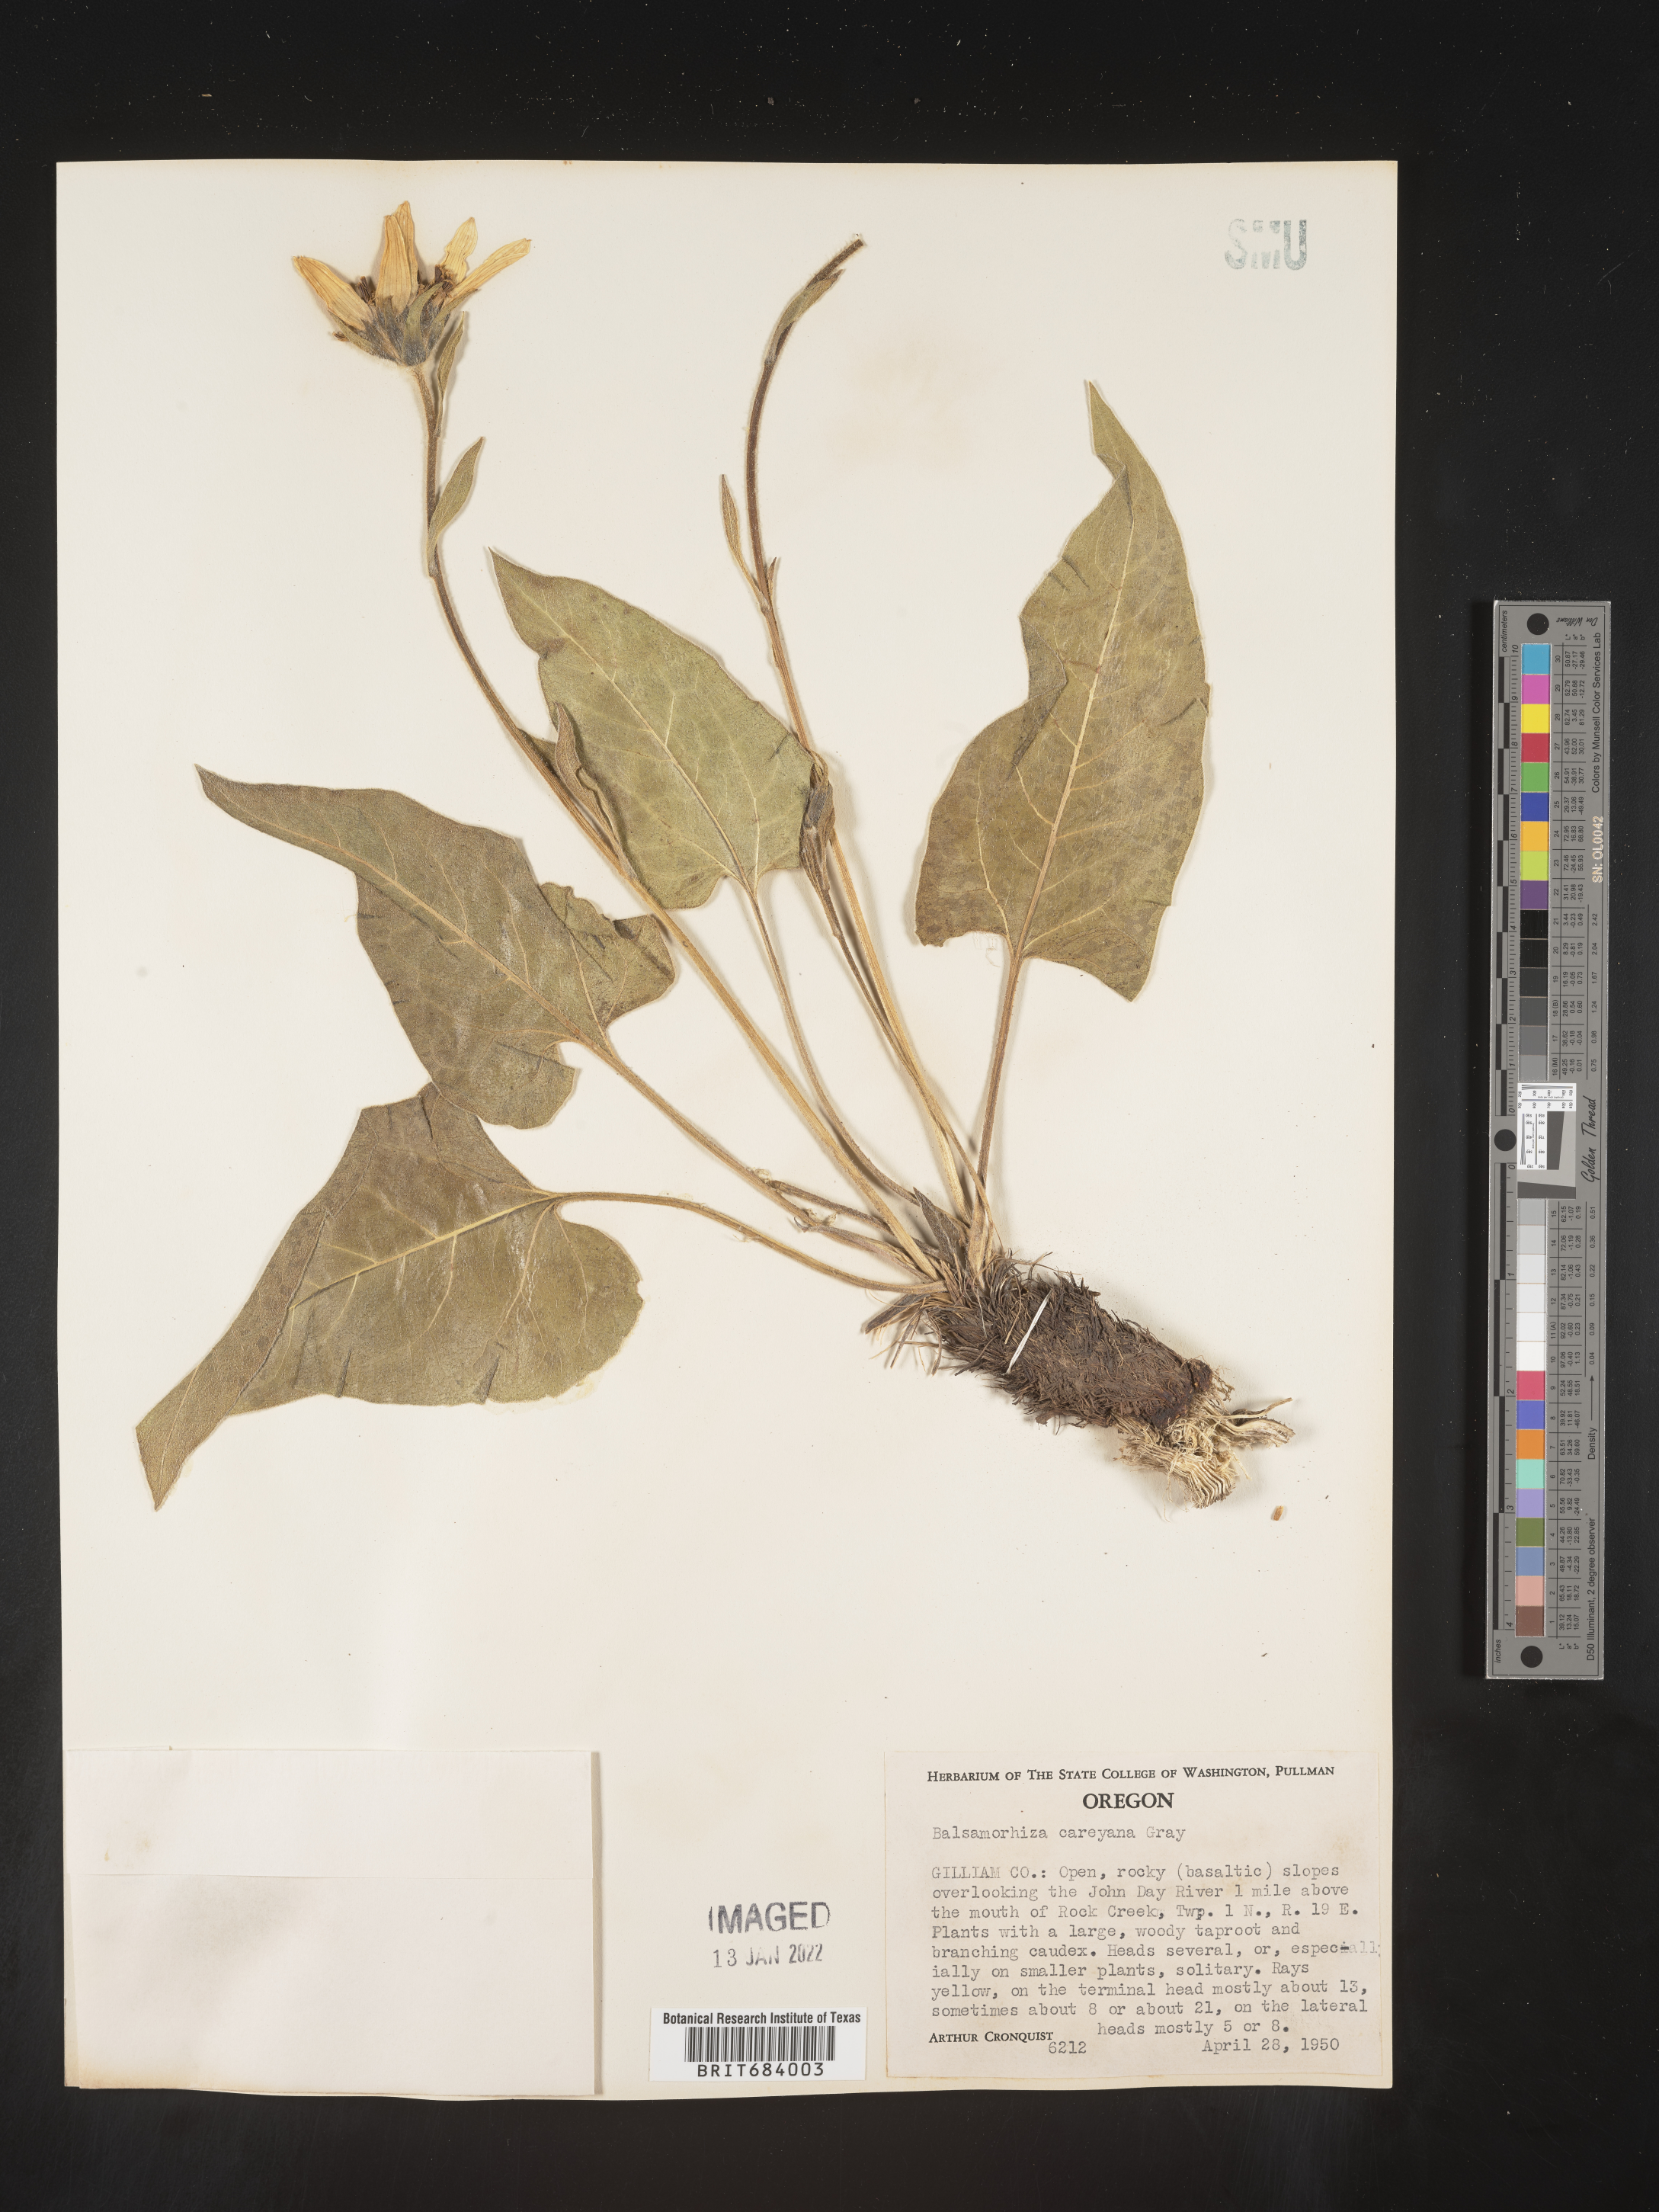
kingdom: Plantae
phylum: Tracheophyta
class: Magnoliopsida
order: Asterales
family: Asteraceae
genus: Balsamorhiza
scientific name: Balsamorhiza
